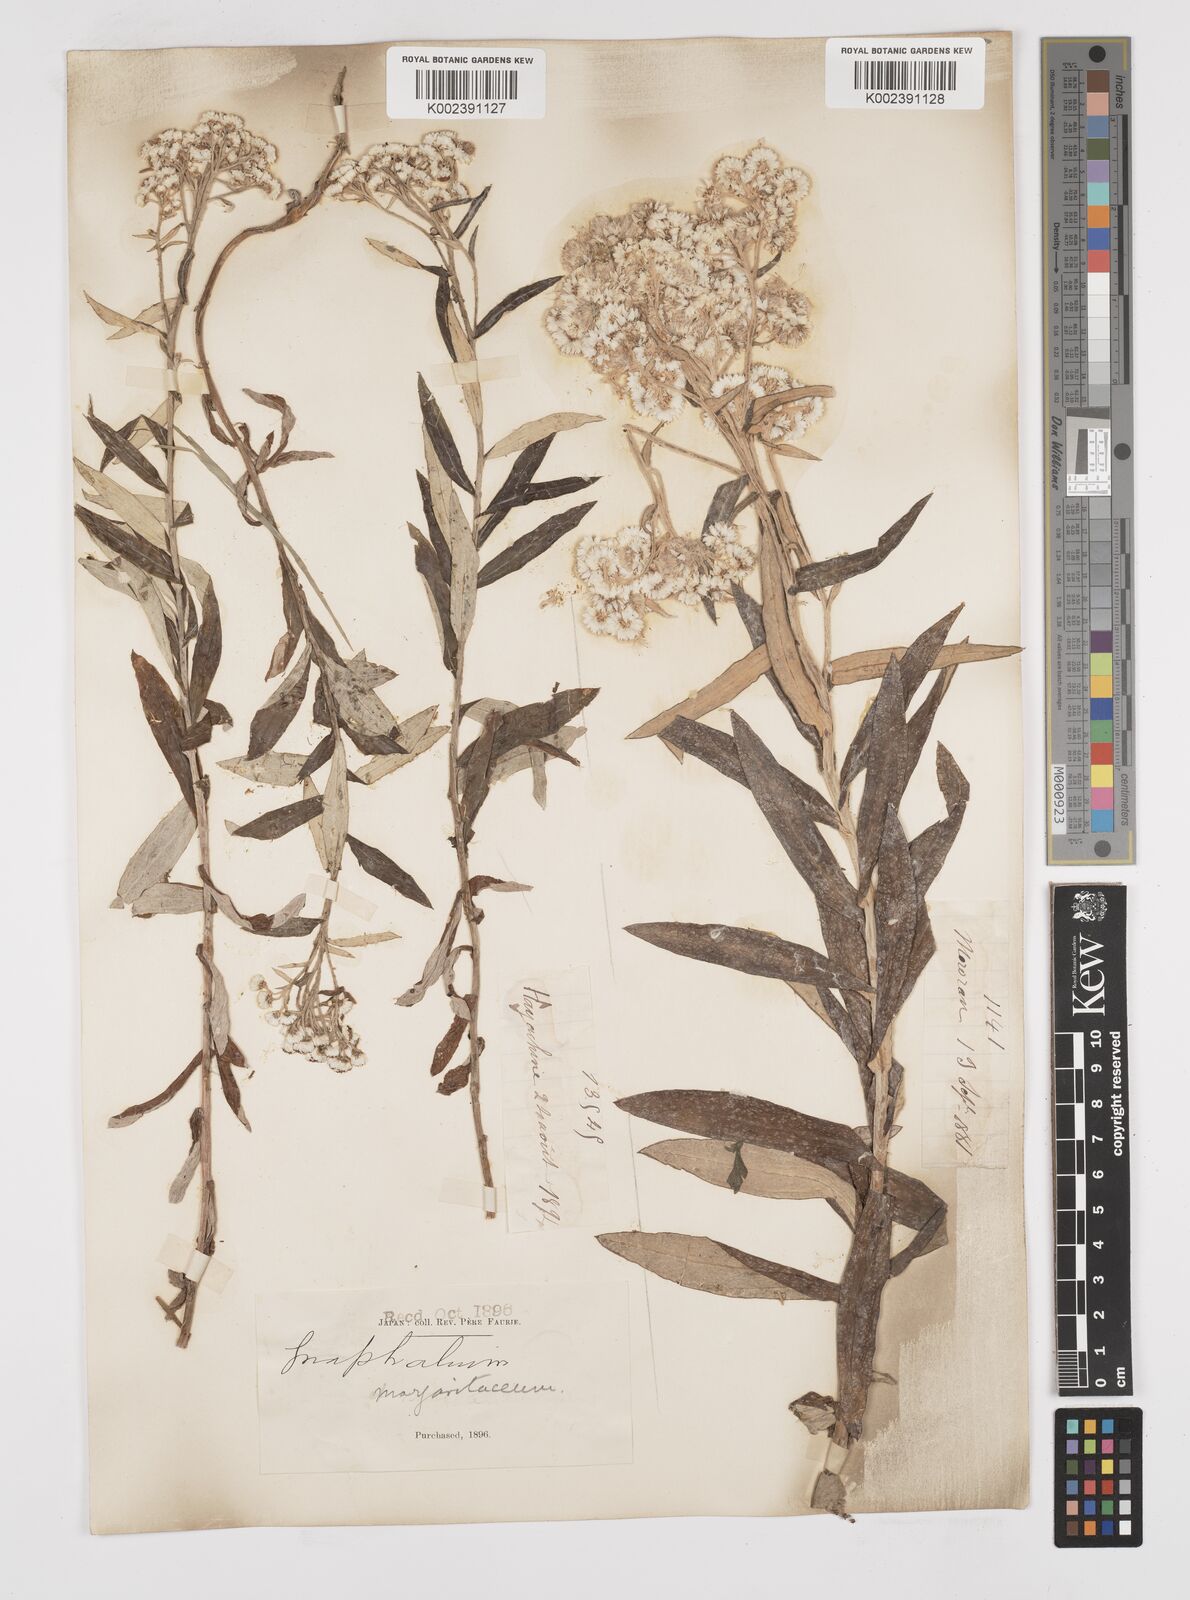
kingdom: Plantae
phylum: Tracheophyta
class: Magnoliopsida
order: Asterales
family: Asteraceae
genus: Anaphalis
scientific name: Anaphalis margaritacea
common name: Pearly everlasting
